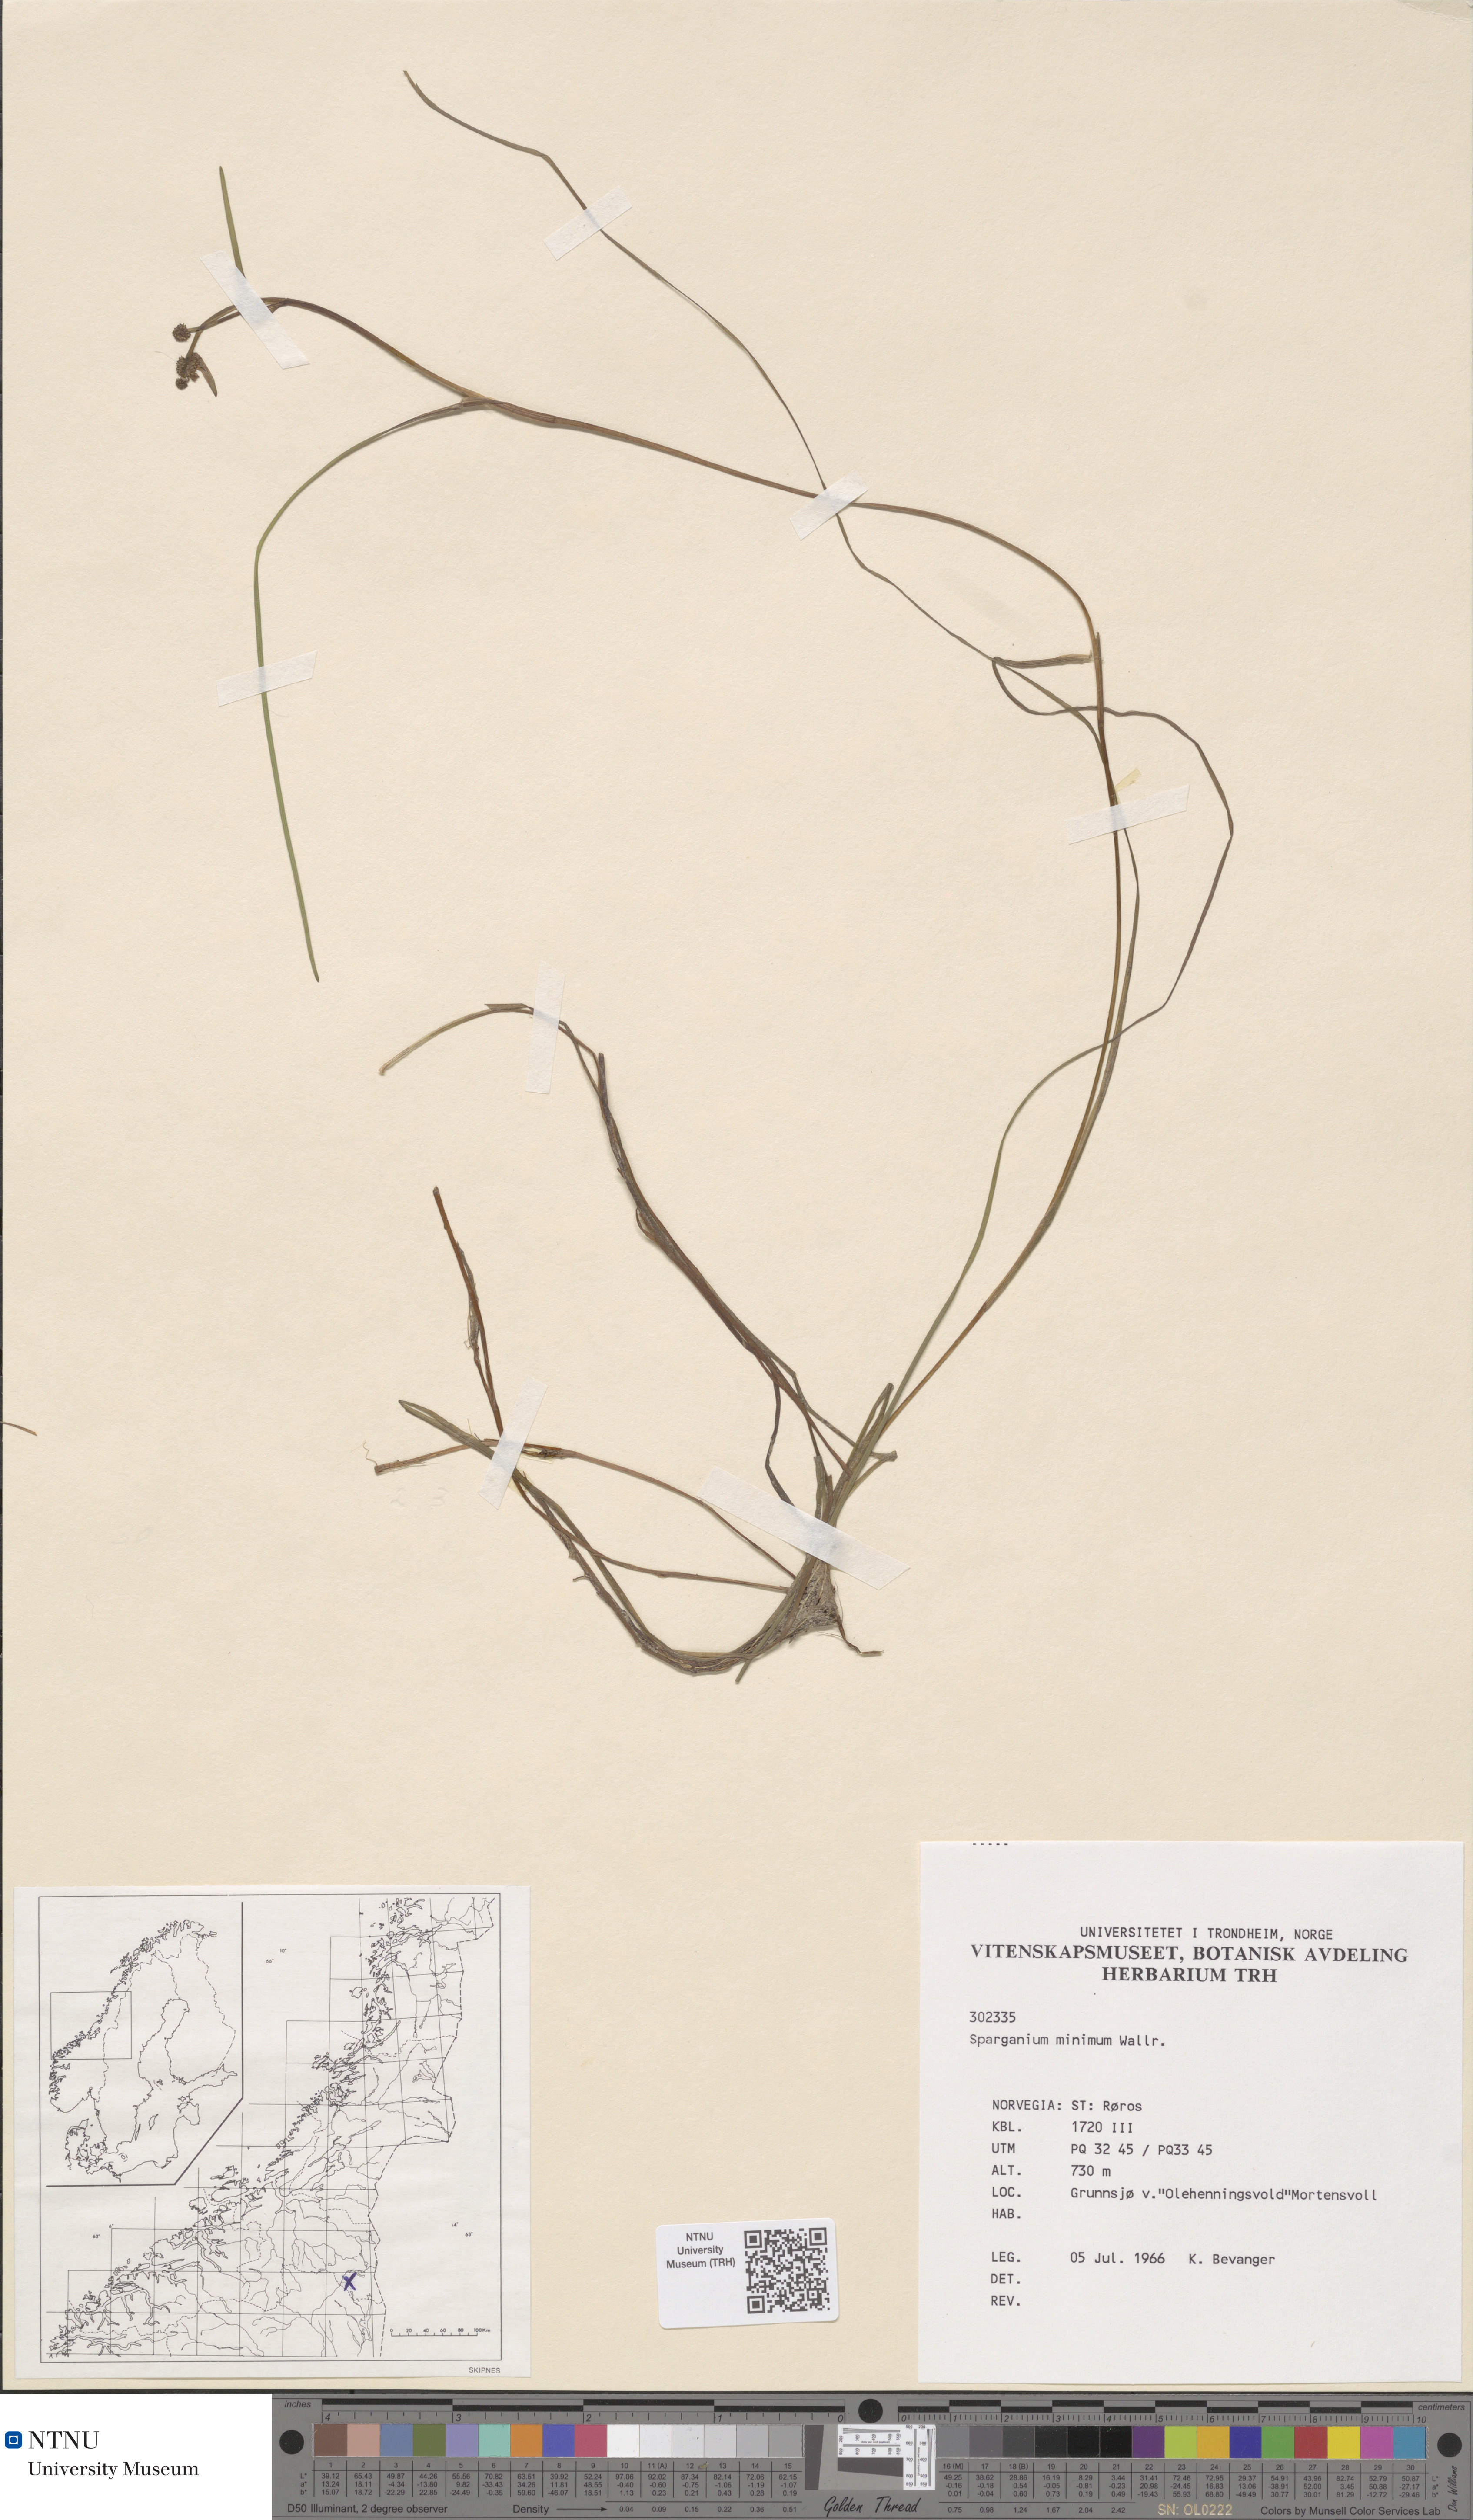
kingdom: Plantae
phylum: Tracheophyta
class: Liliopsida
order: Poales
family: Typhaceae
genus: Sparganium
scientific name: Sparganium natans
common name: Least bur-reed
